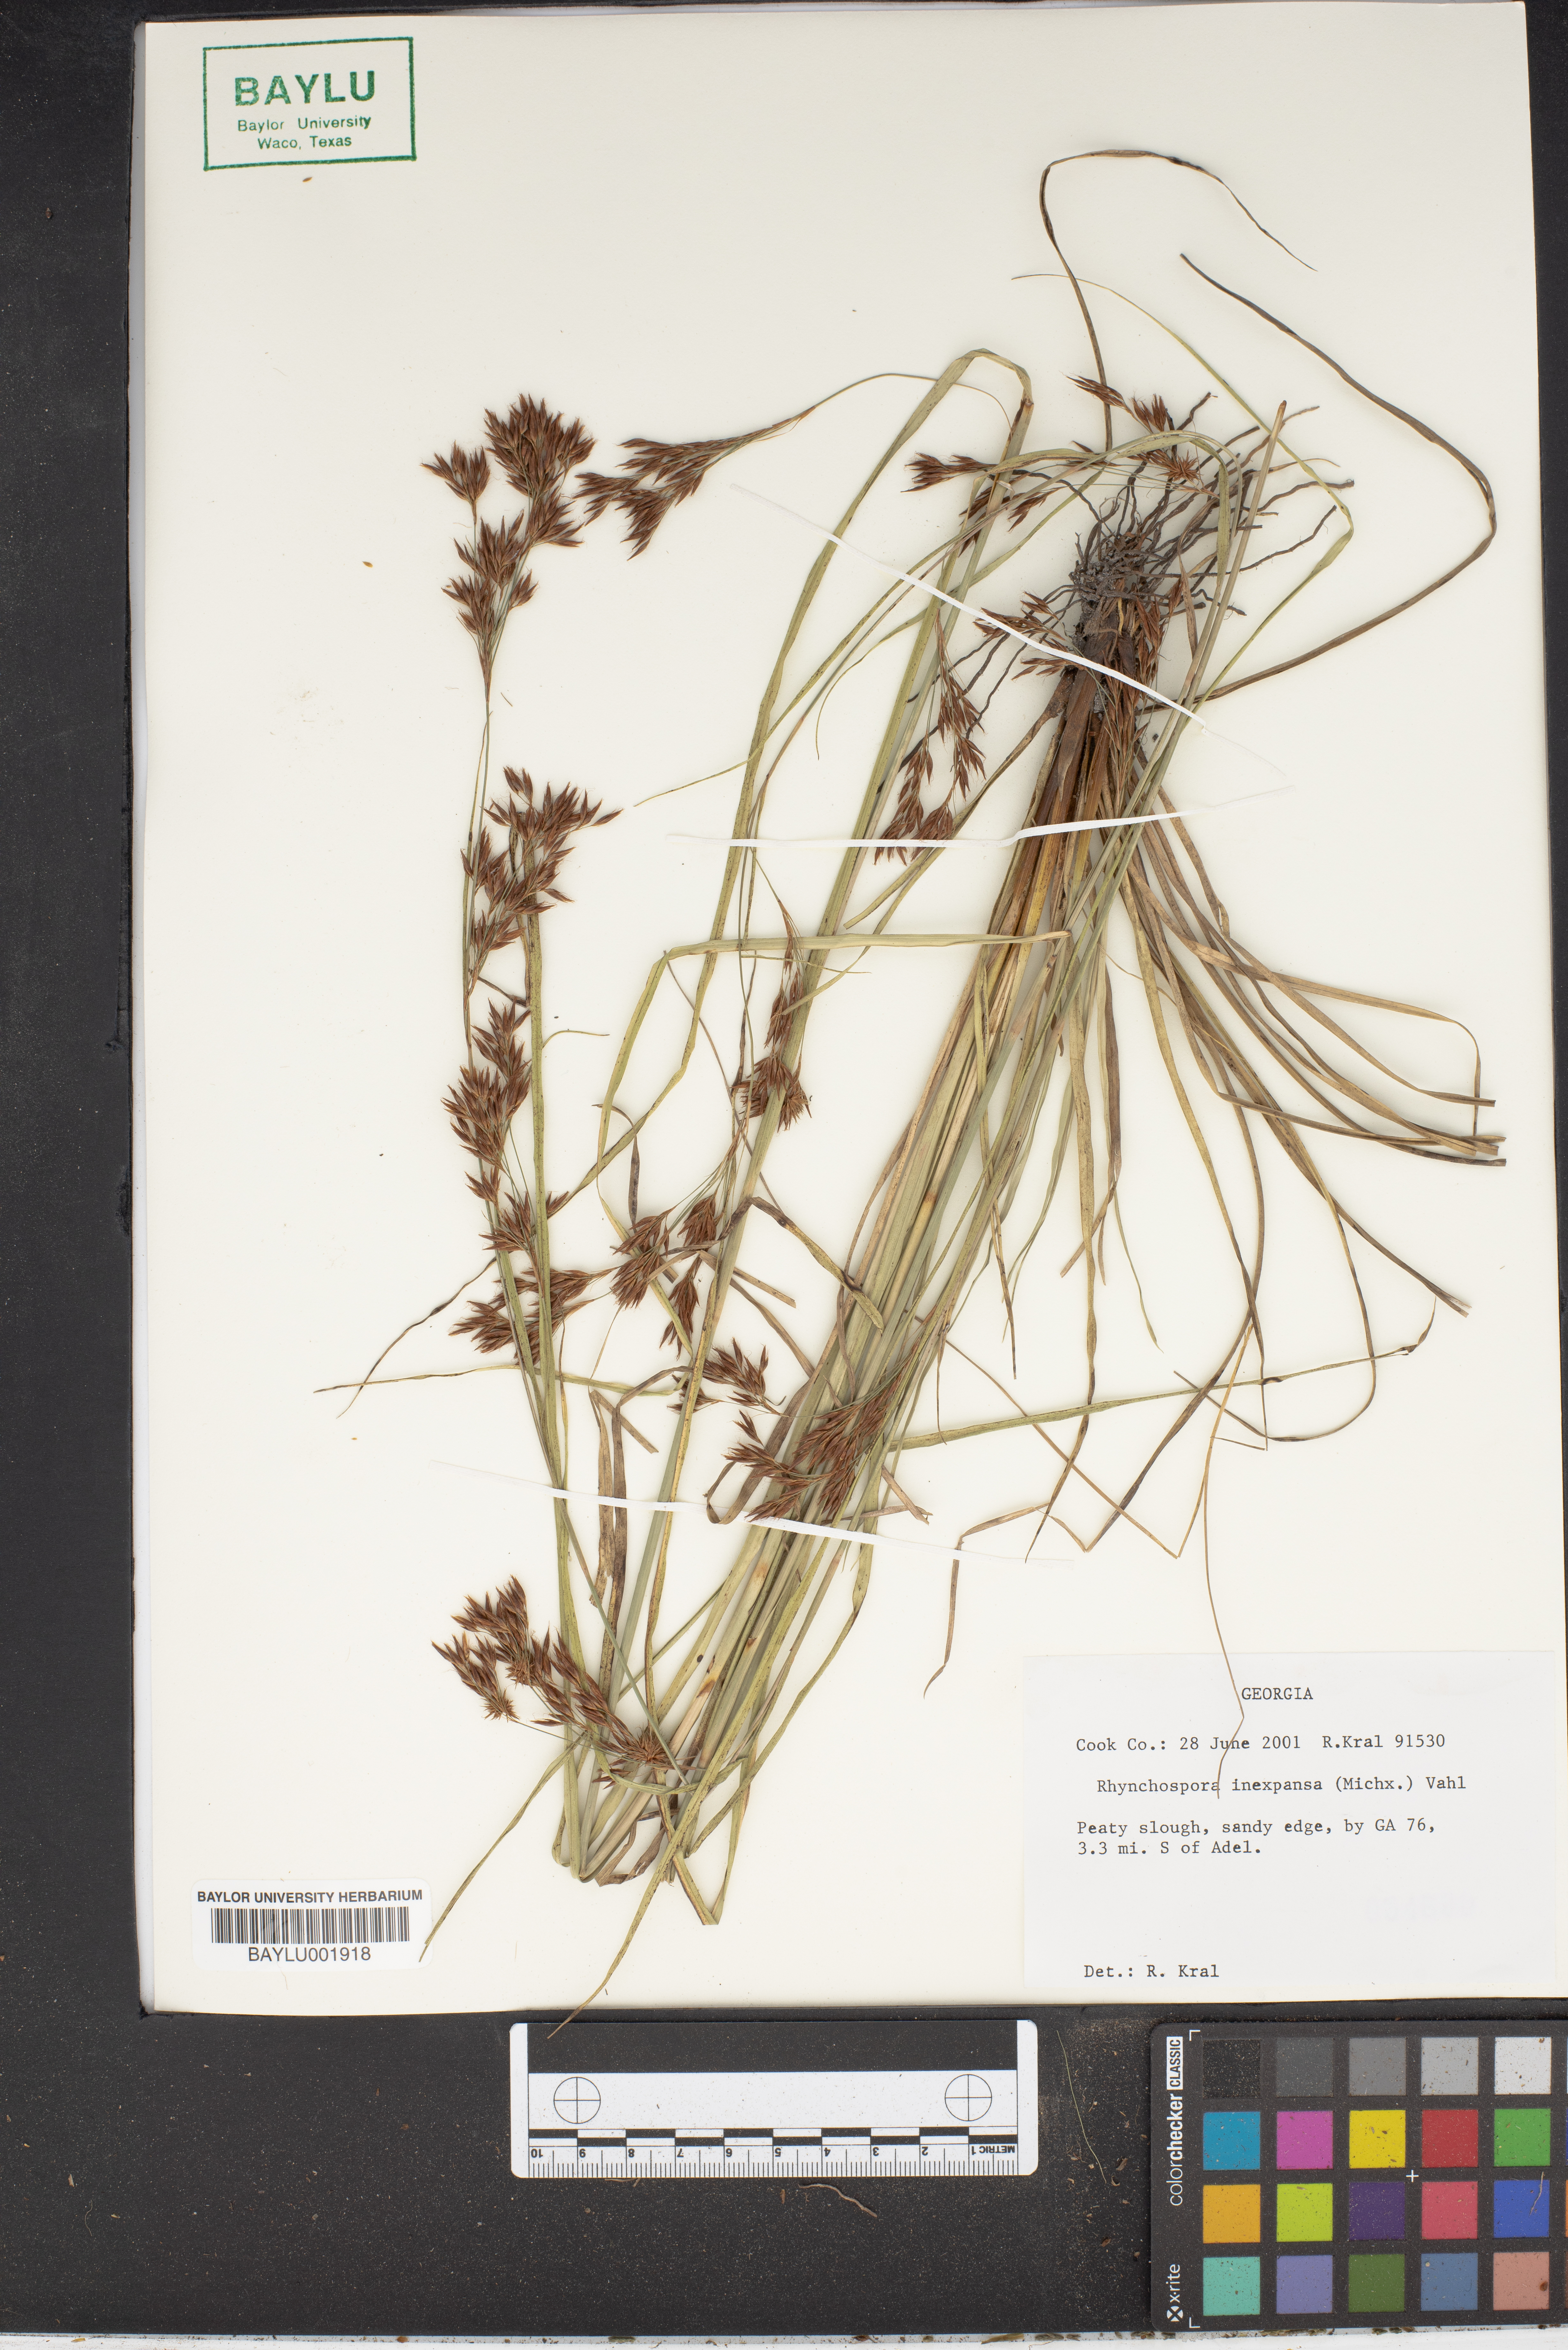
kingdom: Plantae
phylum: Tracheophyta
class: Liliopsida
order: Poales
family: Cyperaceae
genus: Rhynchospora
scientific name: Rhynchospora inexpansa
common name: Nodding beaksedge
